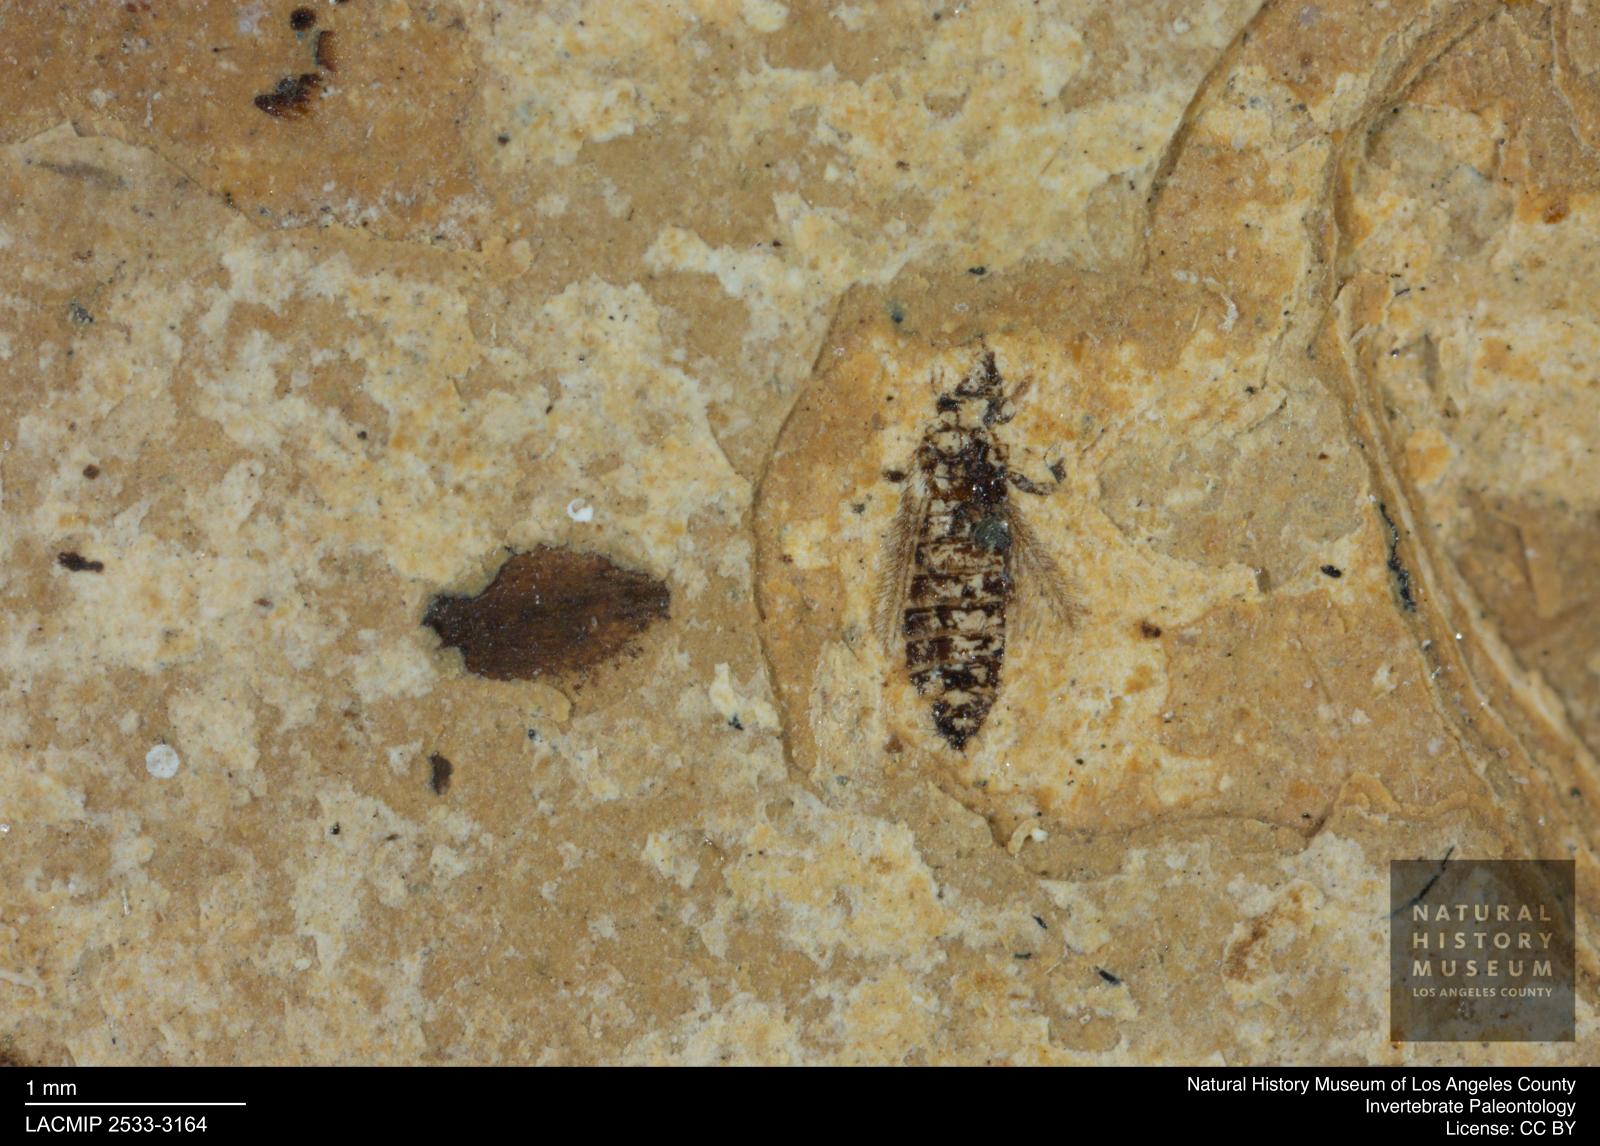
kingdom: Animalia
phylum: Arthropoda
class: Insecta
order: Thysanoptera
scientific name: Thysanoptera
